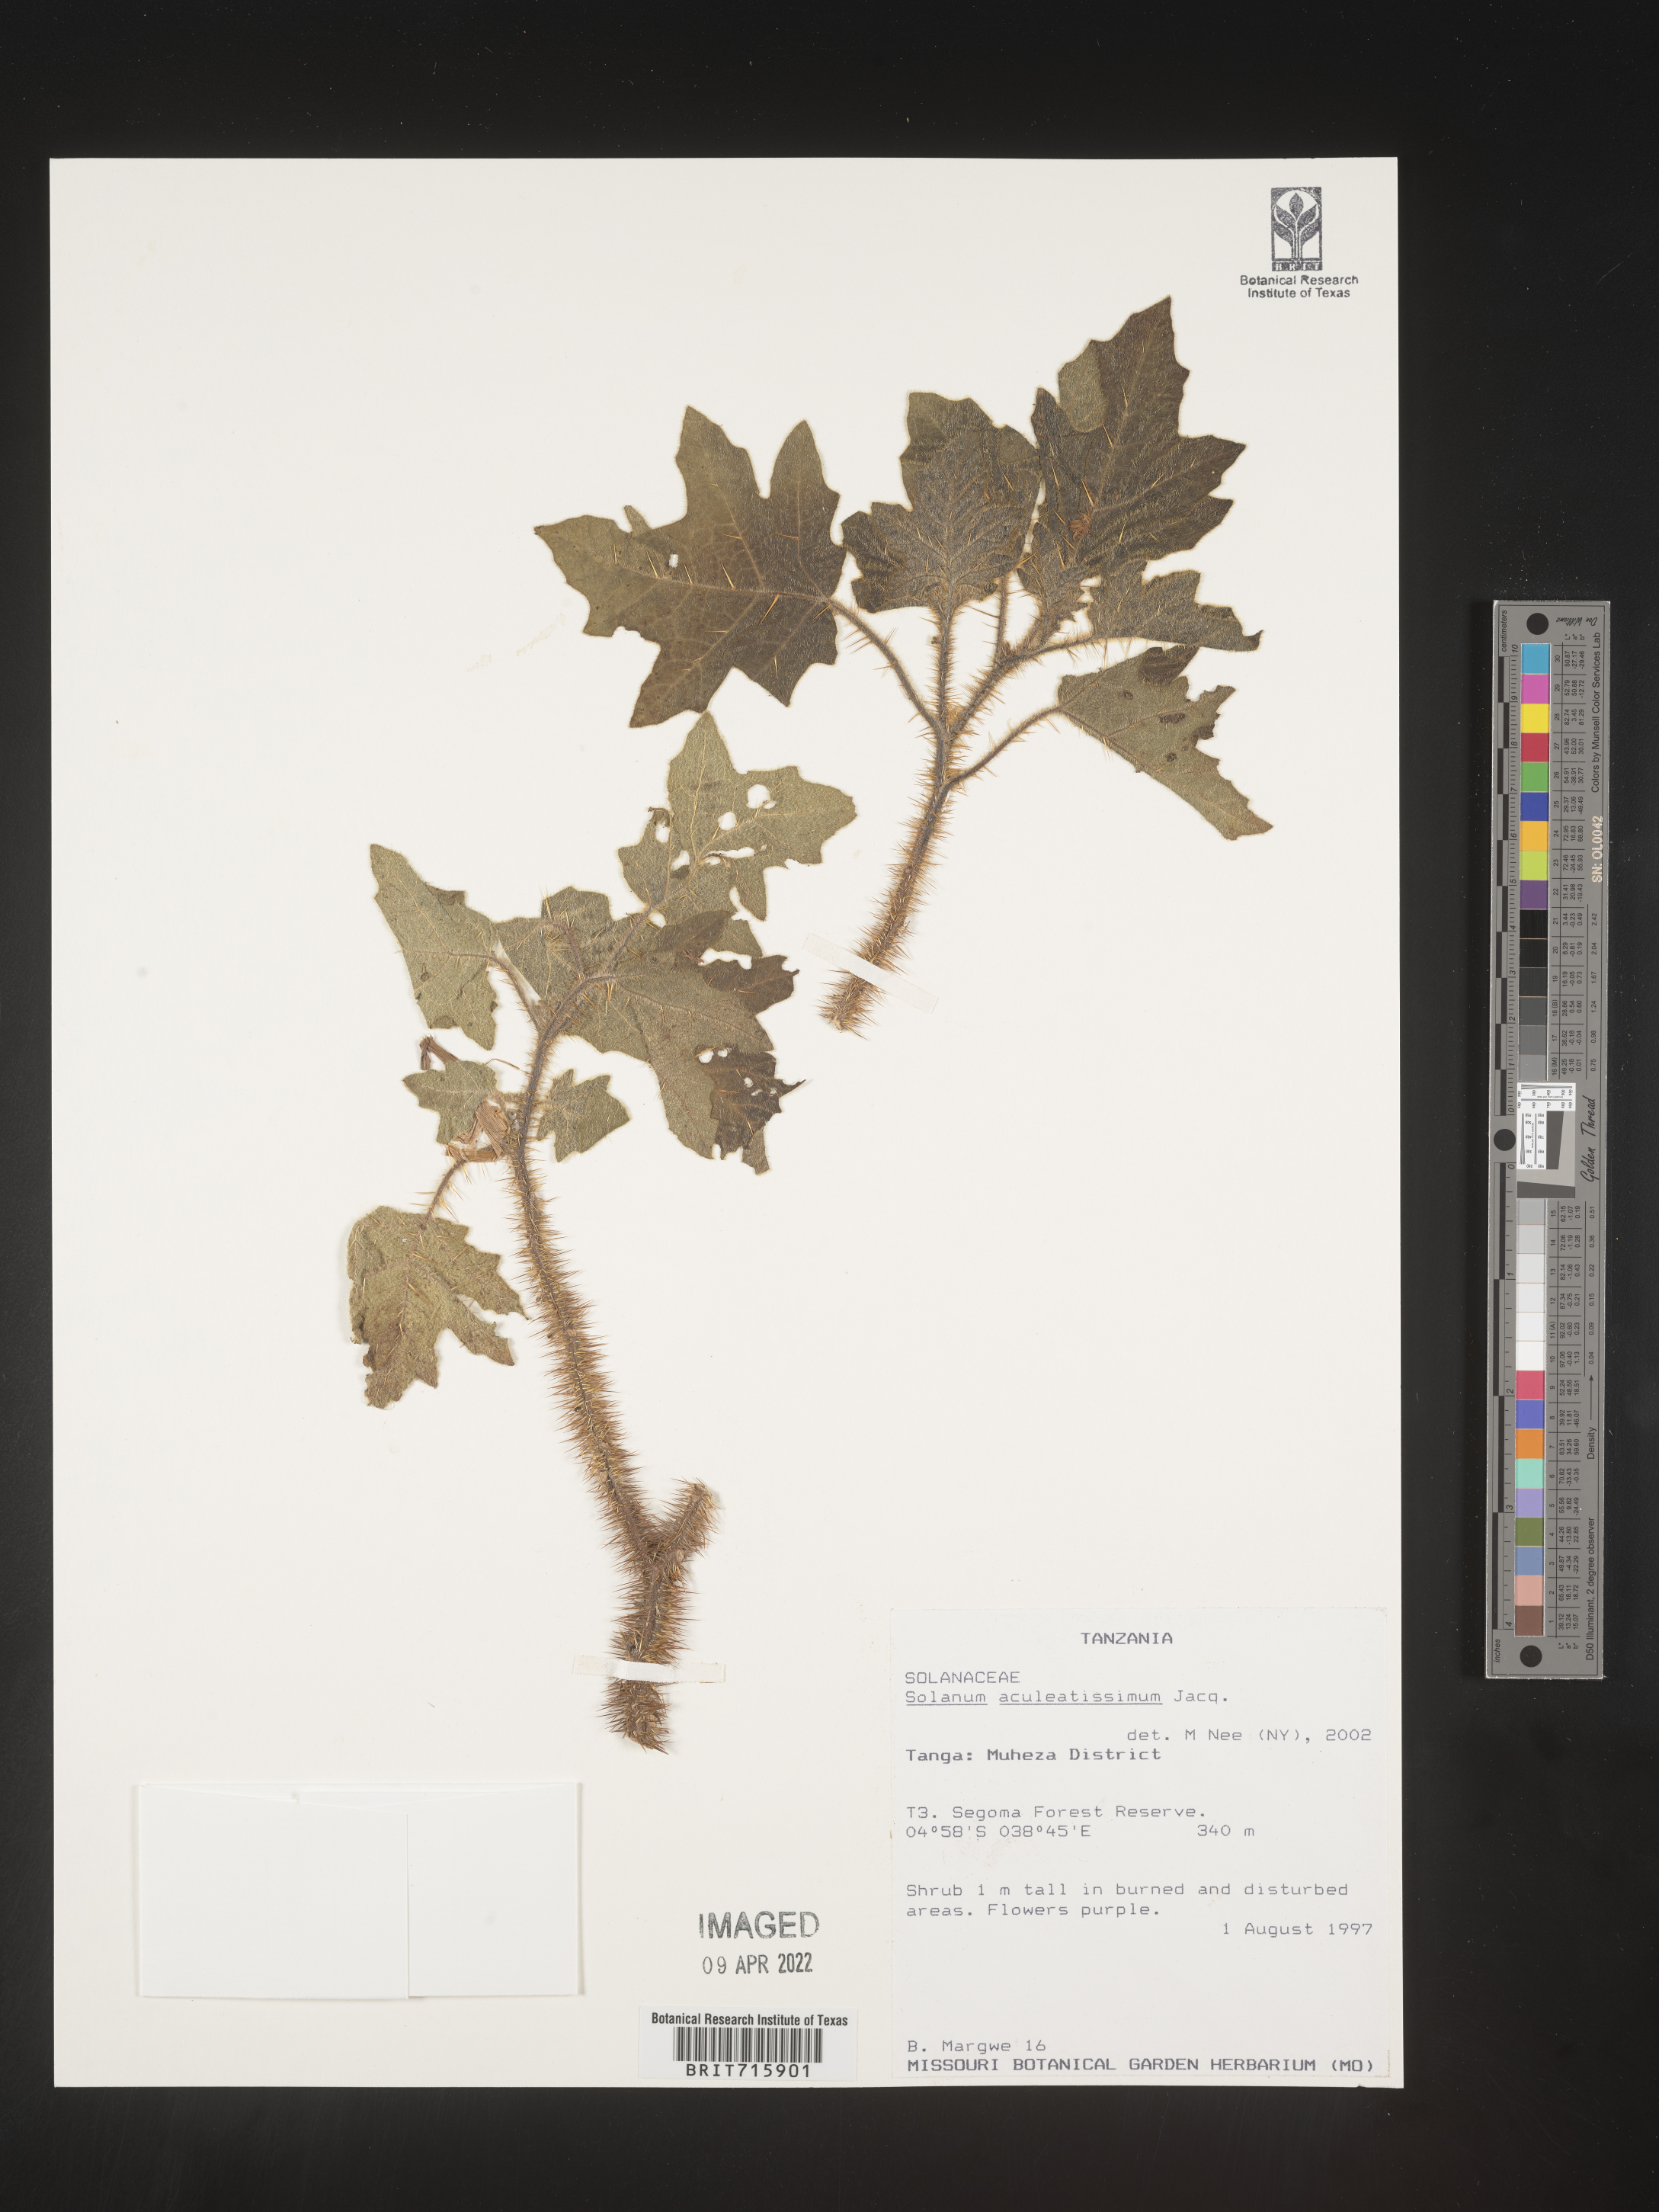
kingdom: Plantae
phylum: Tracheophyta
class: Magnoliopsida
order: Solanales
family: Solanaceae
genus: Solanum
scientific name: Solanum
